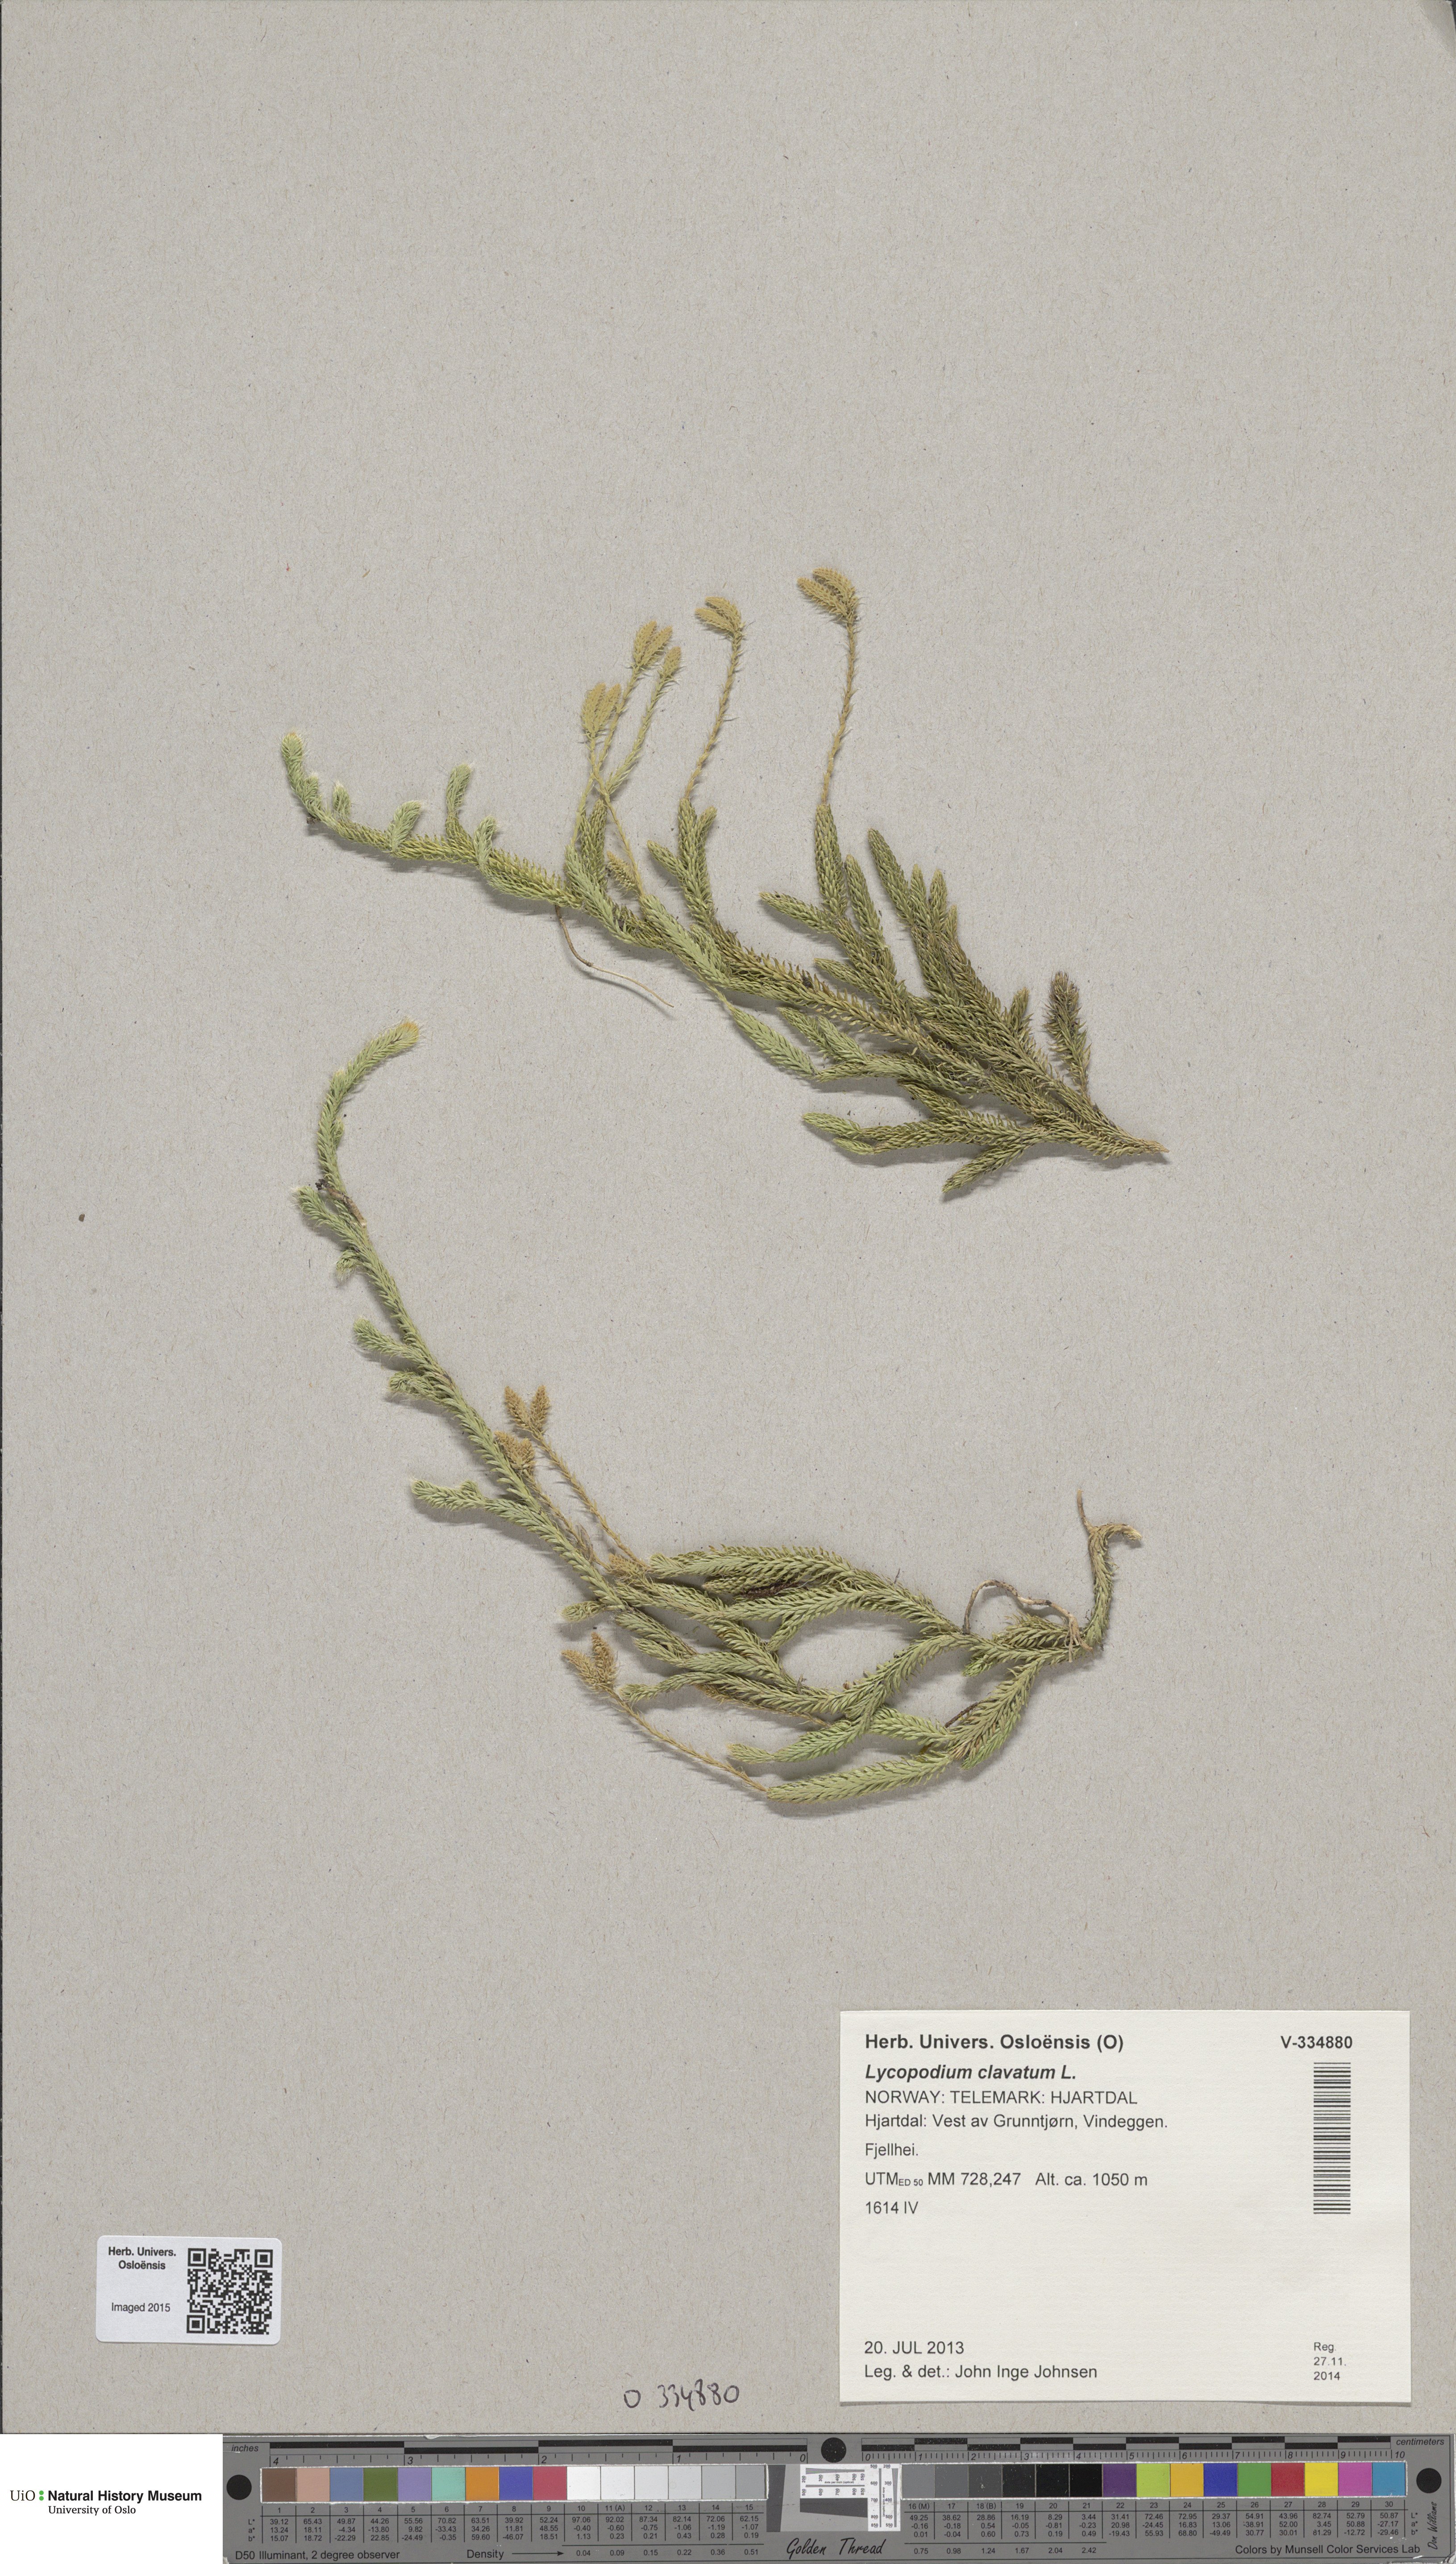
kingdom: Plantae
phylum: Tracheophyta
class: Lycopodiopsida
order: Lycopodiales
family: Lycopodiaceae
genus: Lycopodium
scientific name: Lycopodium lagopus
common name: One-cone clubmoss
